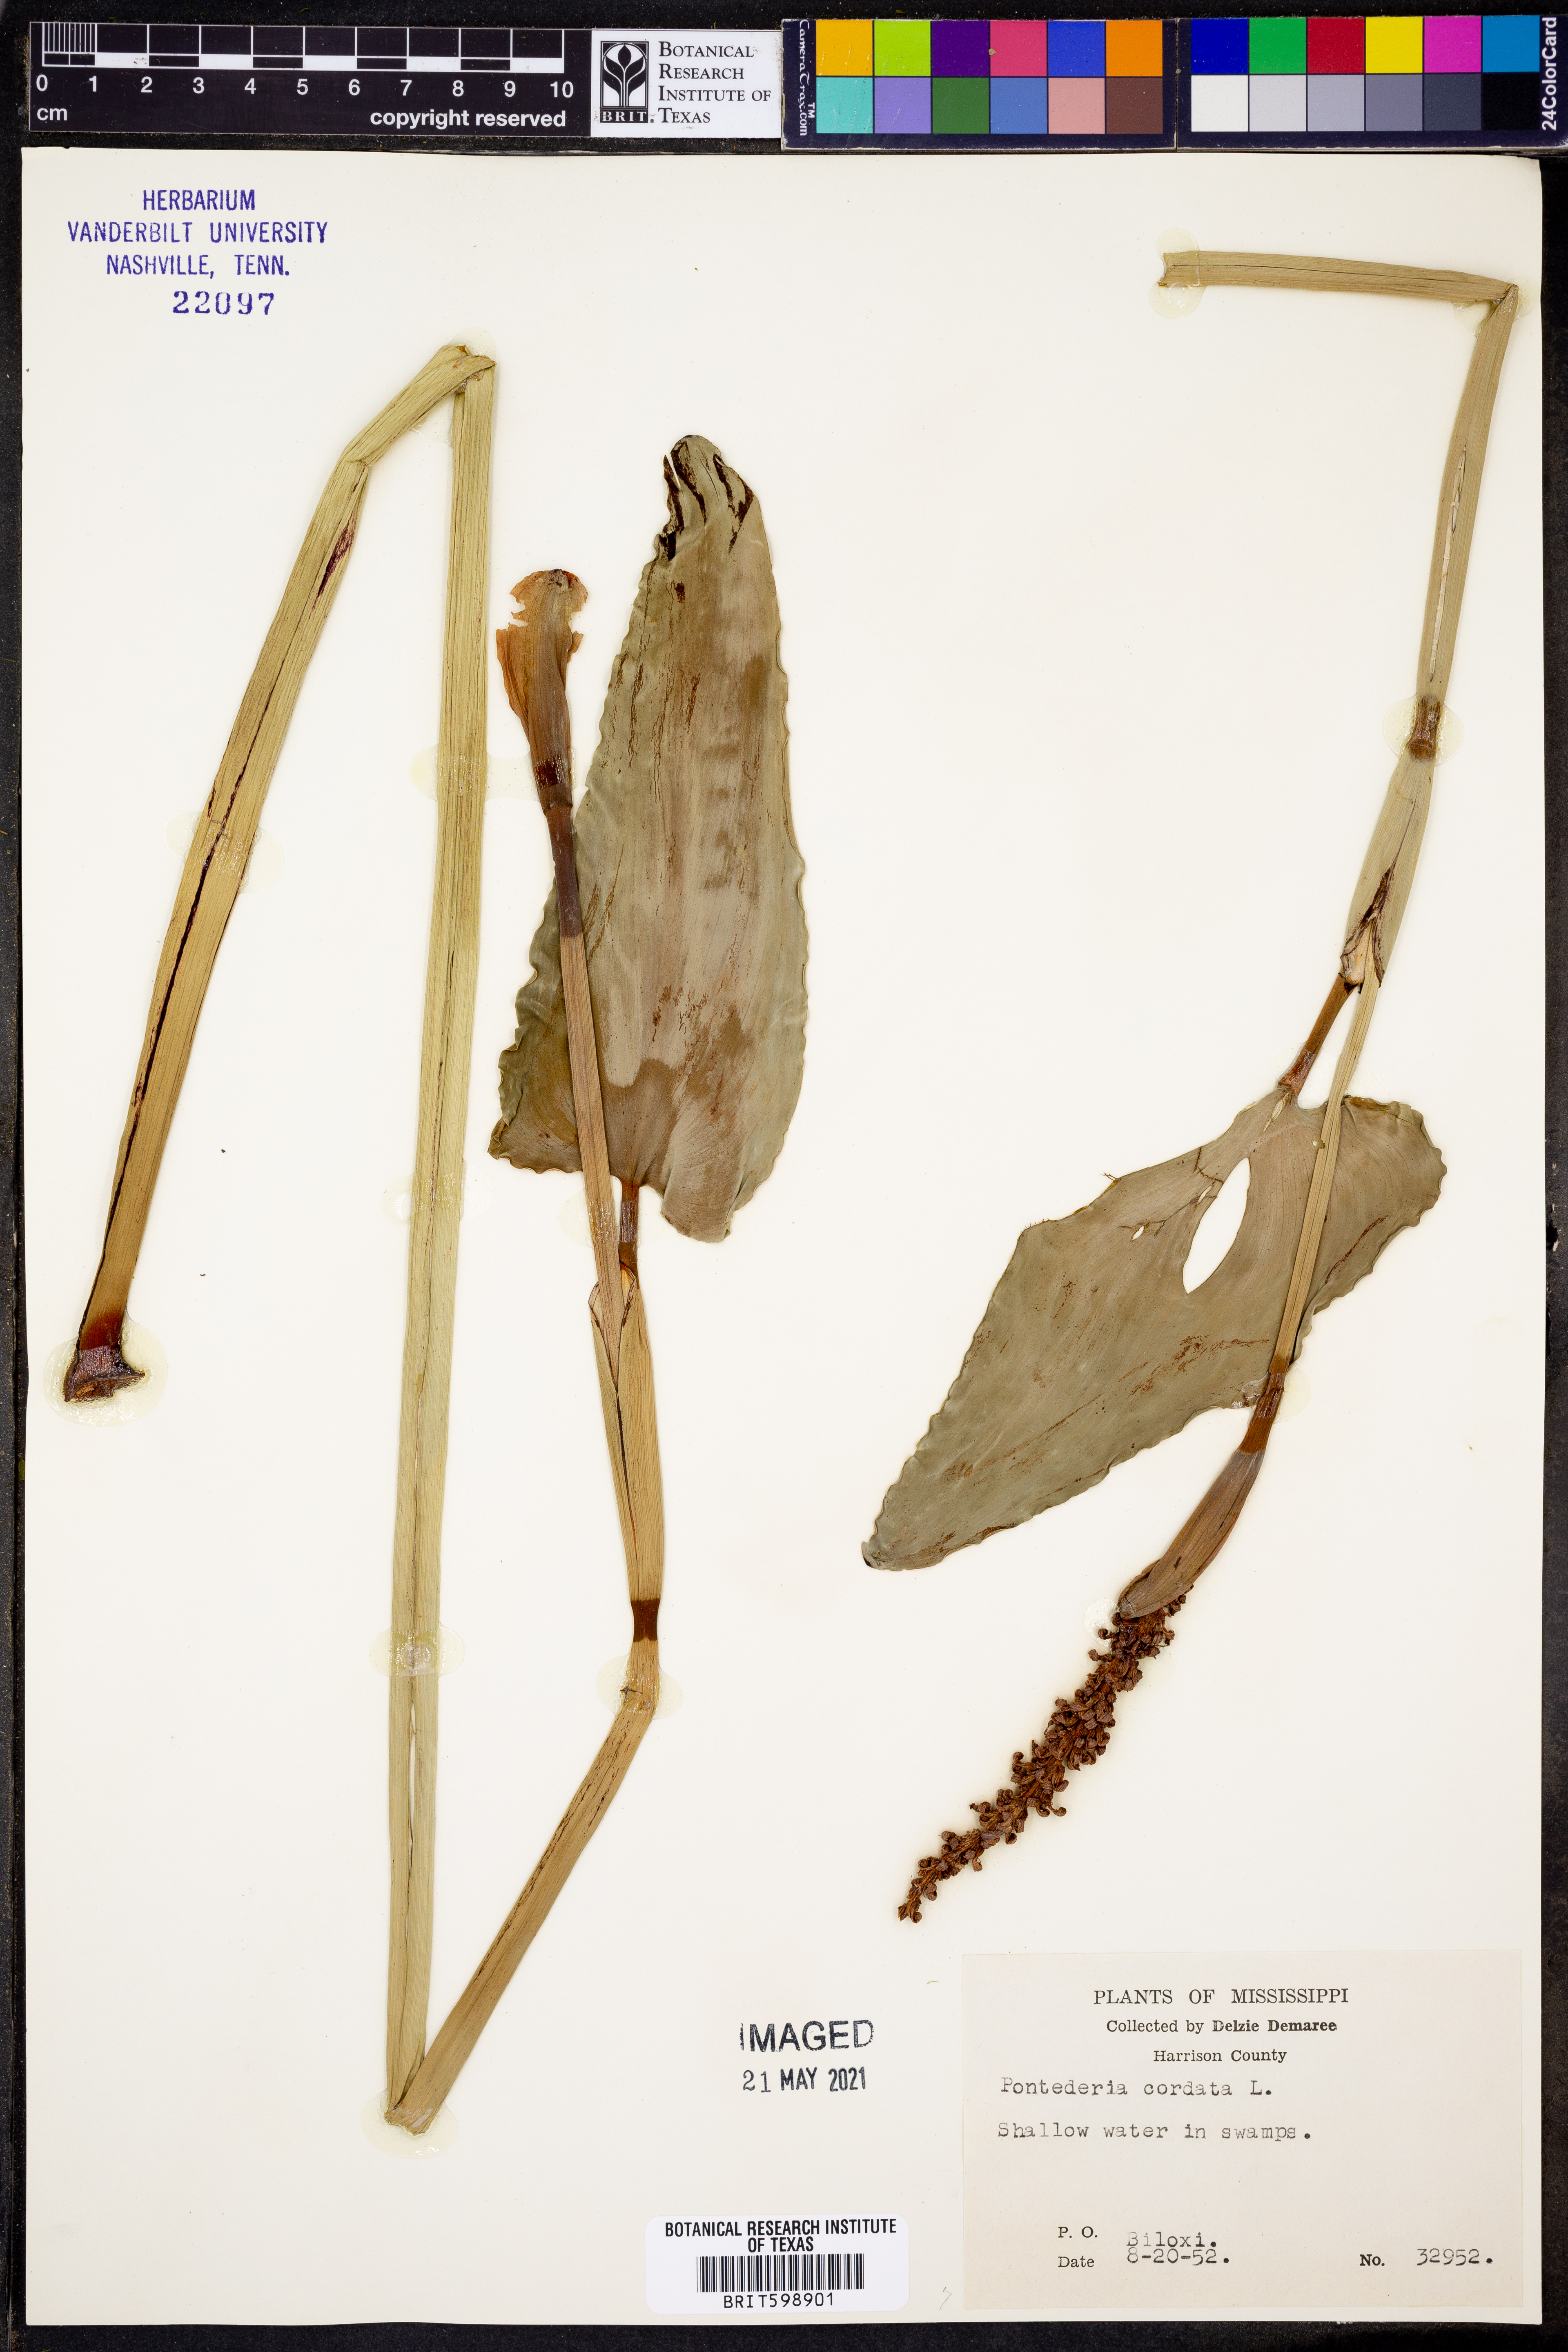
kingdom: Plantae
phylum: Tracheophyta
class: Liliopsida
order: Commelinales
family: Pontederiaceae
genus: Pontederia
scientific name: Pontederia cordata
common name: Pickerelweed
